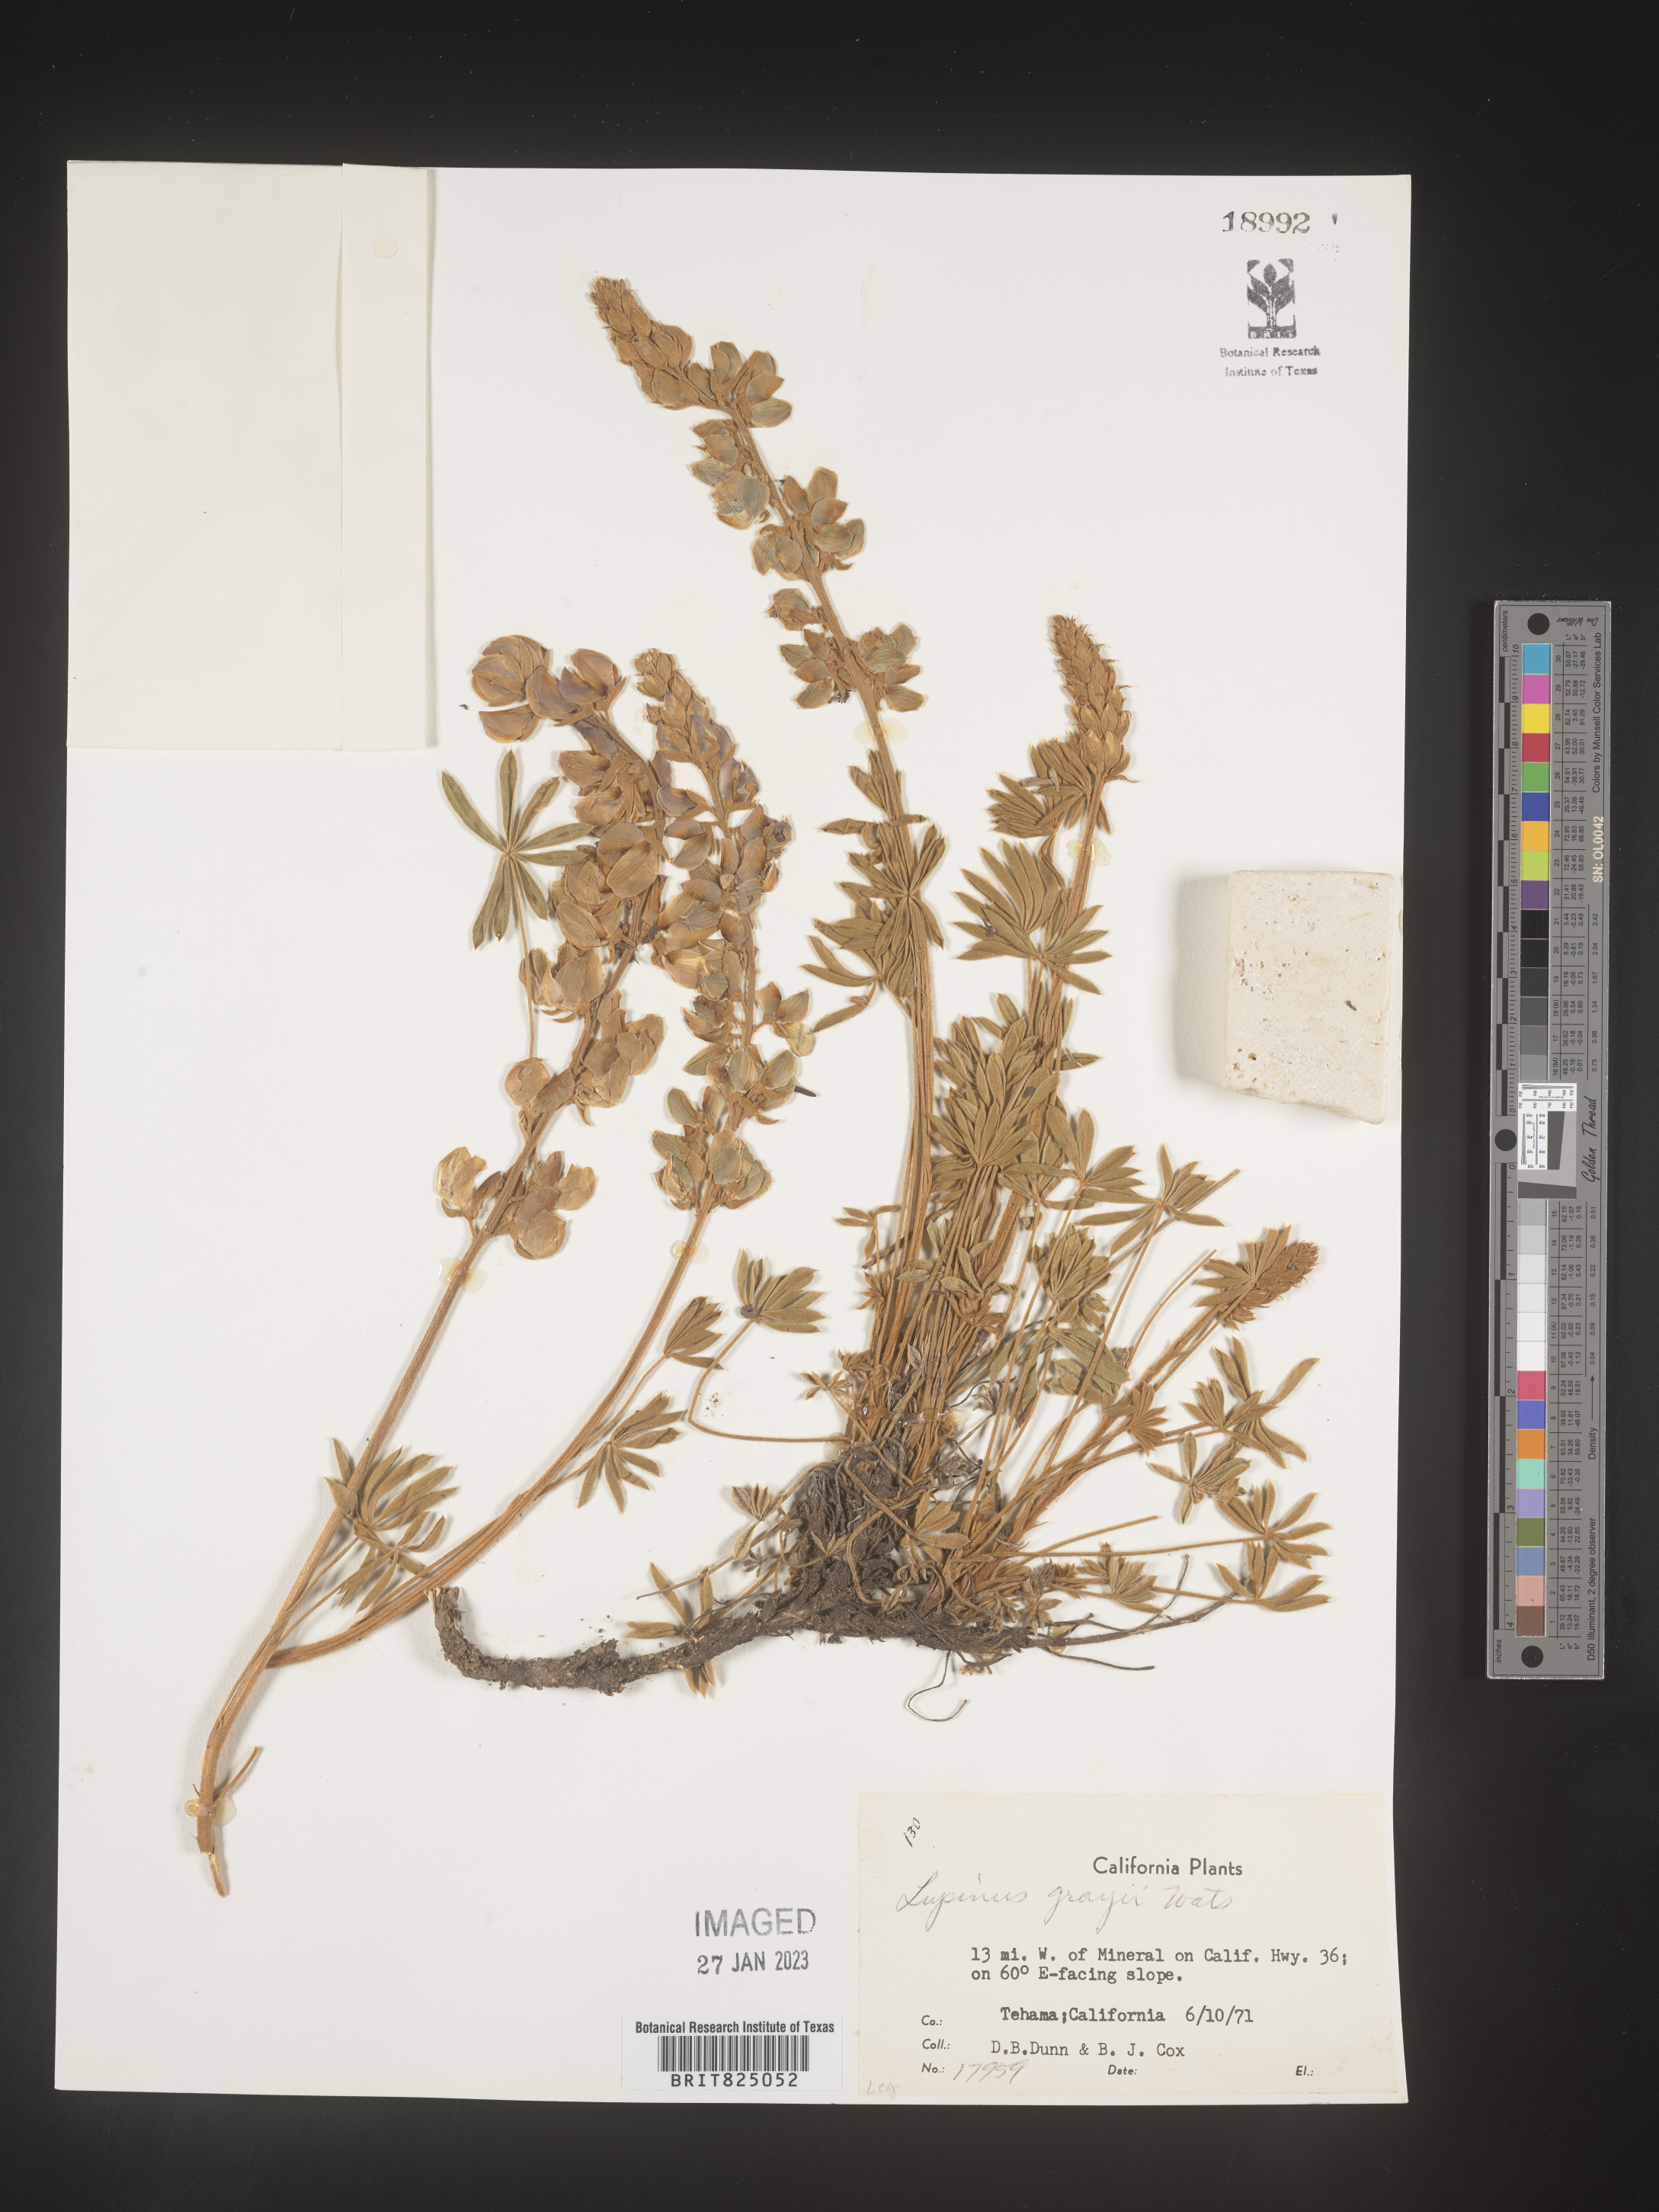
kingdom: Plantae
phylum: Tracheophyta
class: Magnoliopsida
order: Fabales
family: Fabaceae
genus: Lupinus
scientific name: Lupinus
